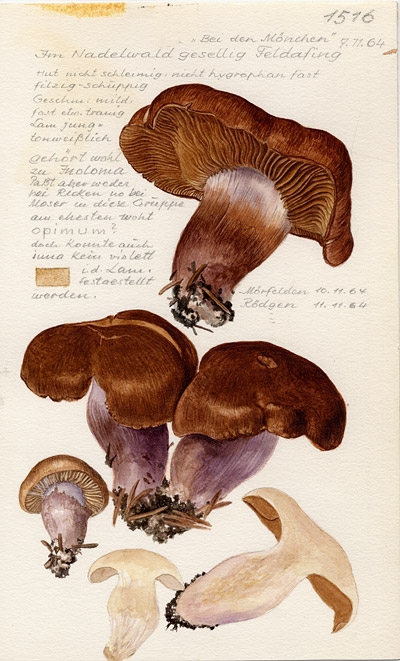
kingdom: Fungi
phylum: Basidiomycota
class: Agaricomycetes
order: Agaricales
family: Cortinariaceae
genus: Cortinarius
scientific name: Cortinarius
